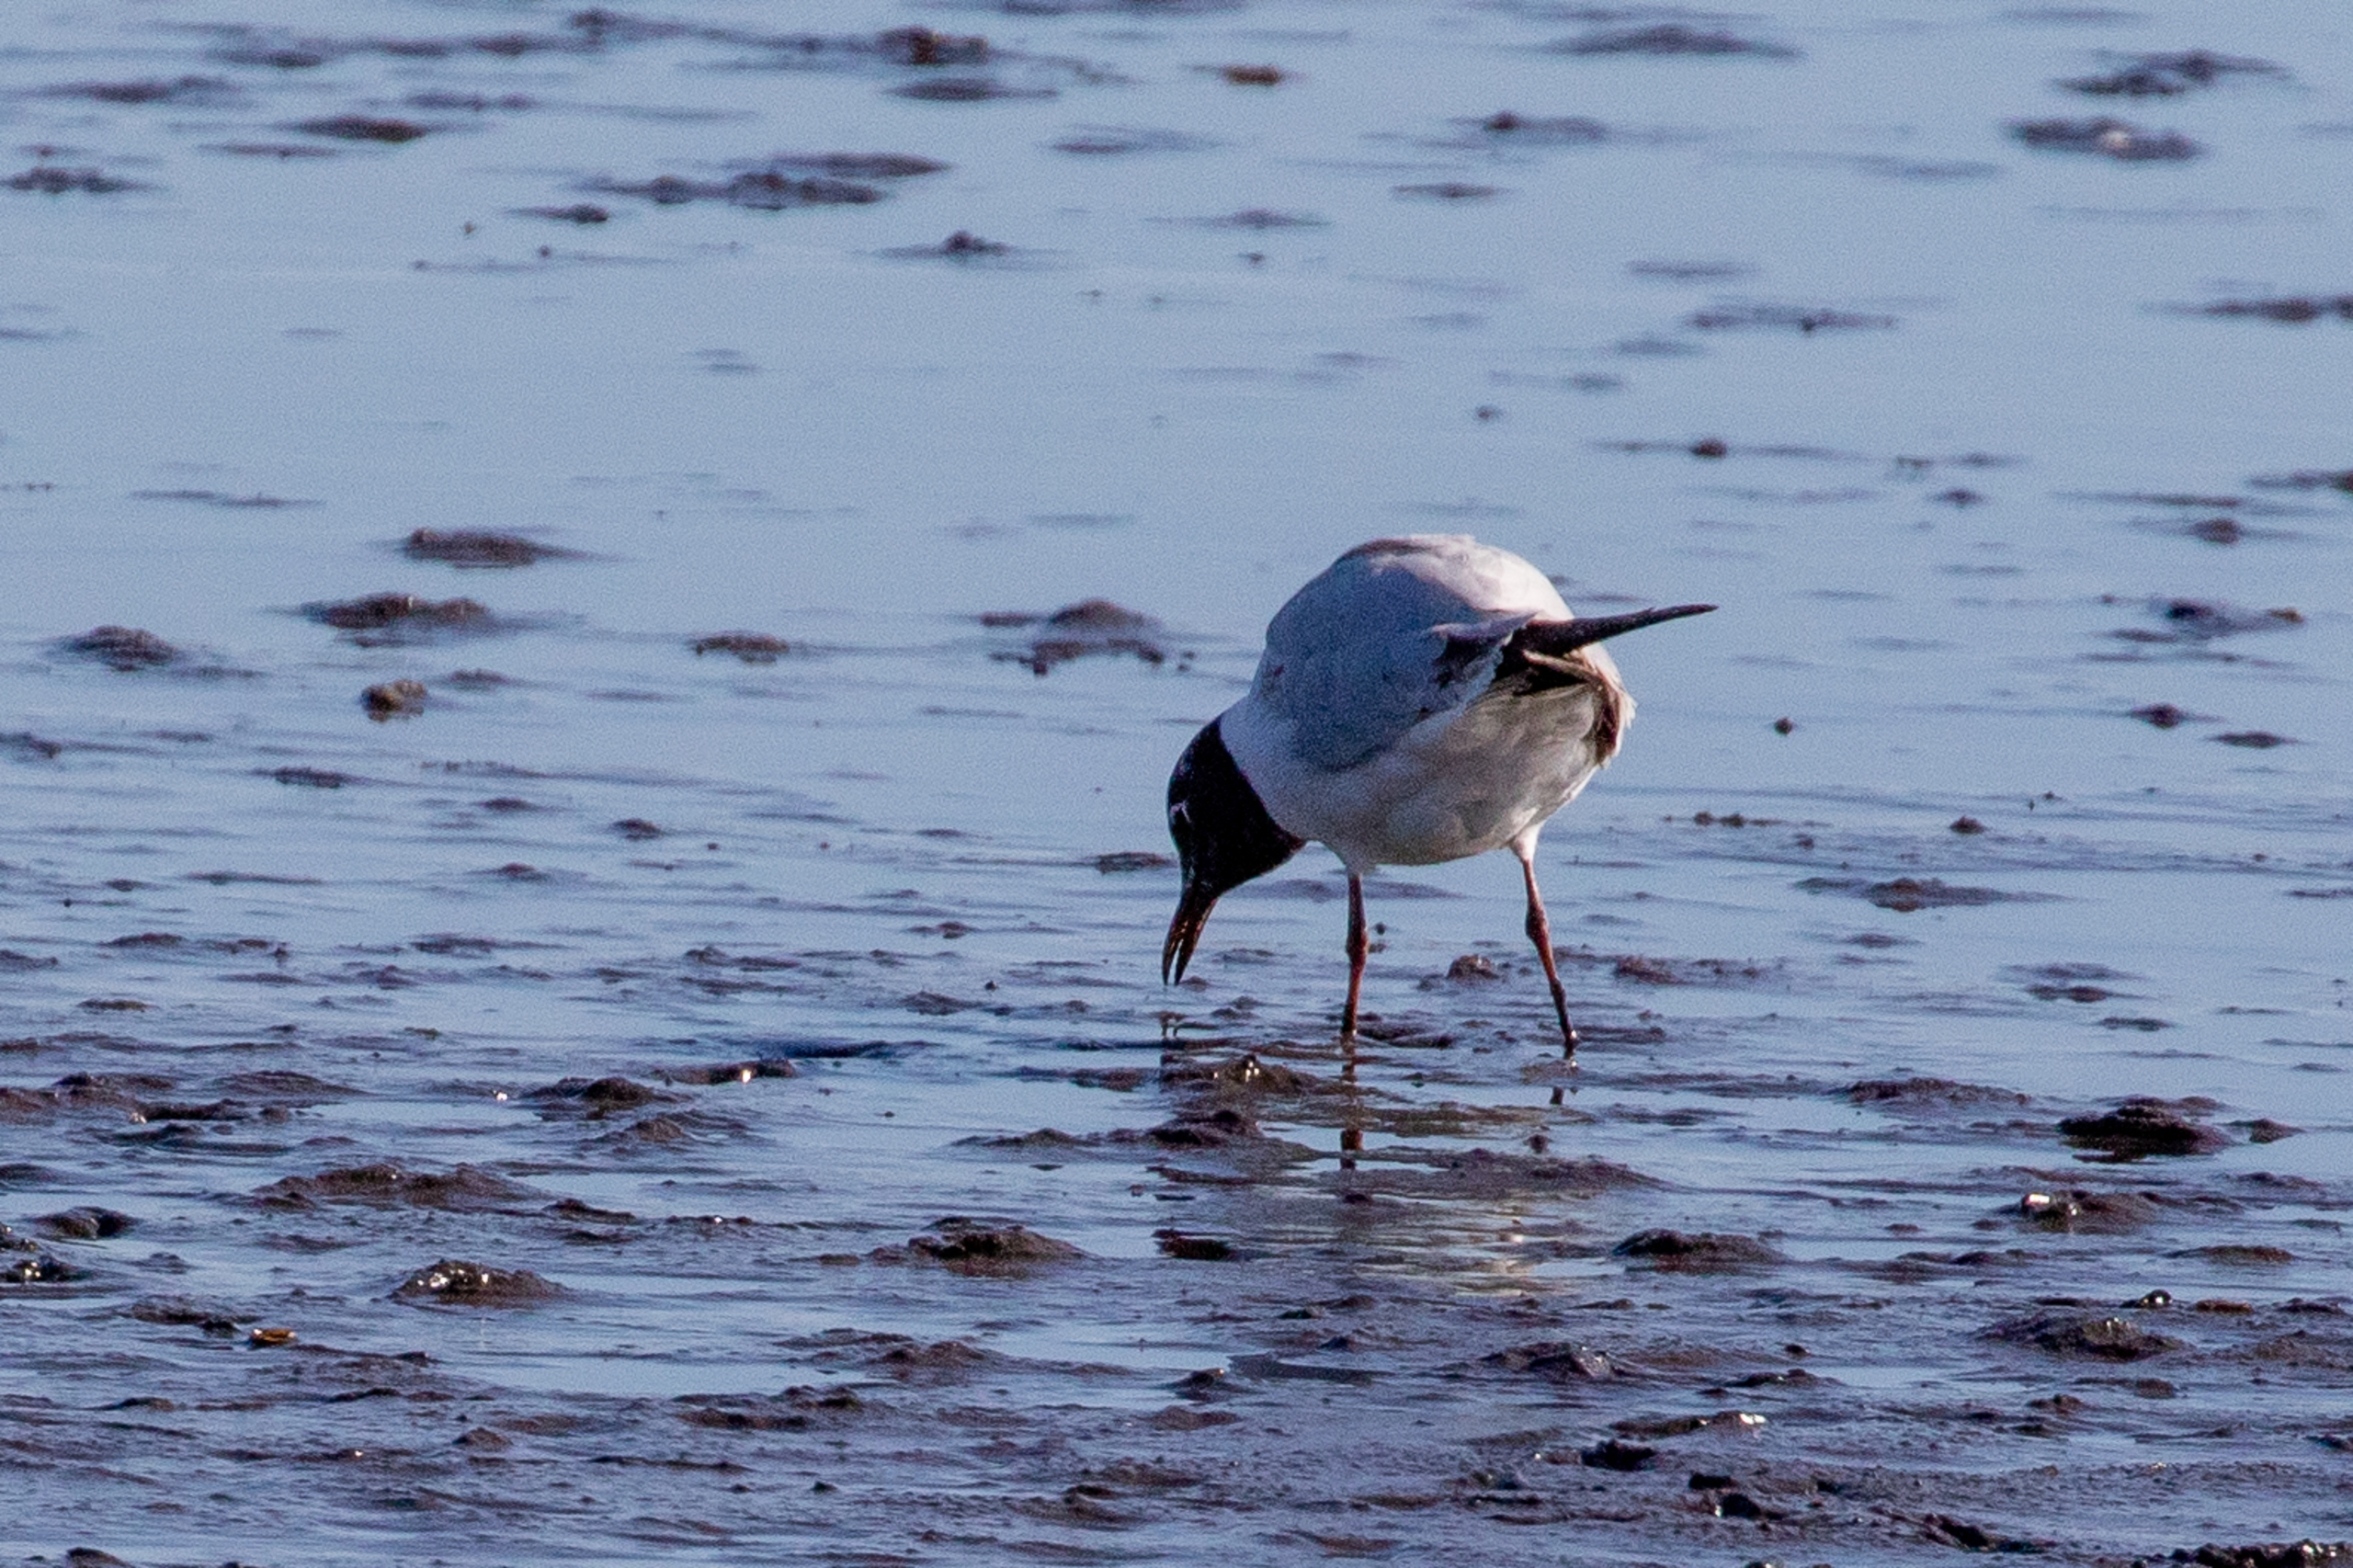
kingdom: Animalia
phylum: Chordata
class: Aves
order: Charadriiformes
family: Laridae
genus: Chroicocephalus
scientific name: Chroicocephalus ridibundus
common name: Hættemåge
